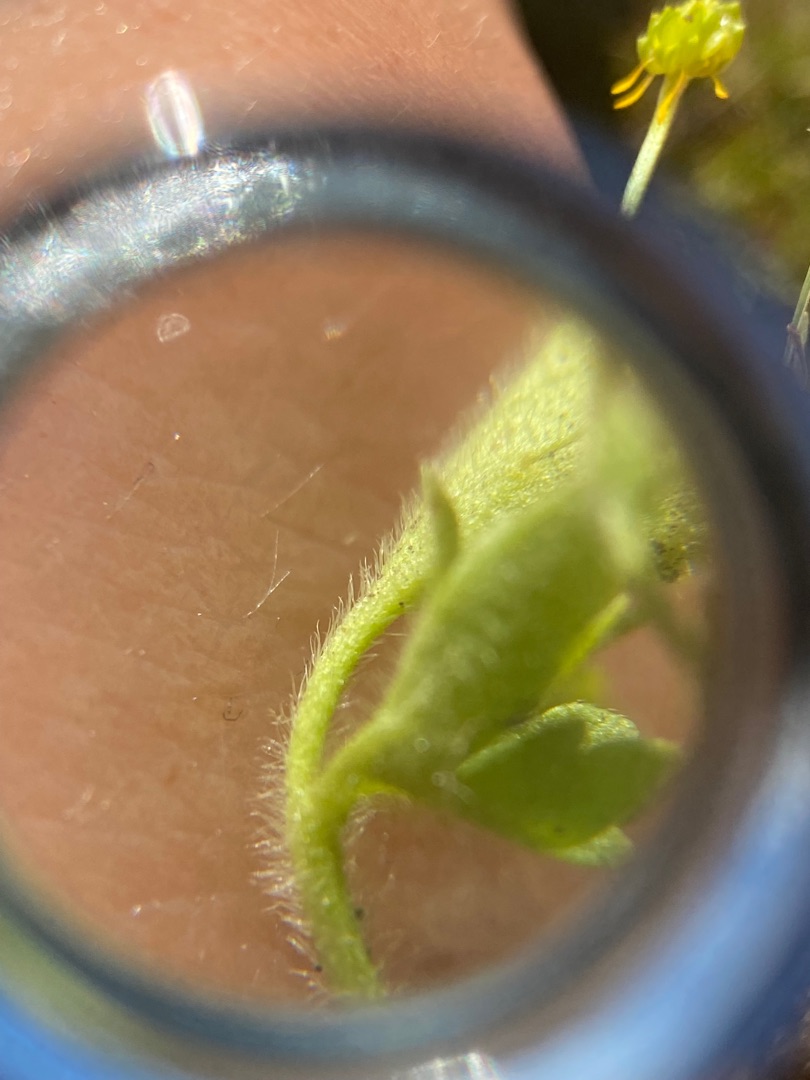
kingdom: Plantae
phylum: Tracheophyta
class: Magnoliopsida
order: Ranunculales
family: Ranunculaceae
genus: Ranunculus
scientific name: Ranunculus sardous
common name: Stivhåret ranunkel
